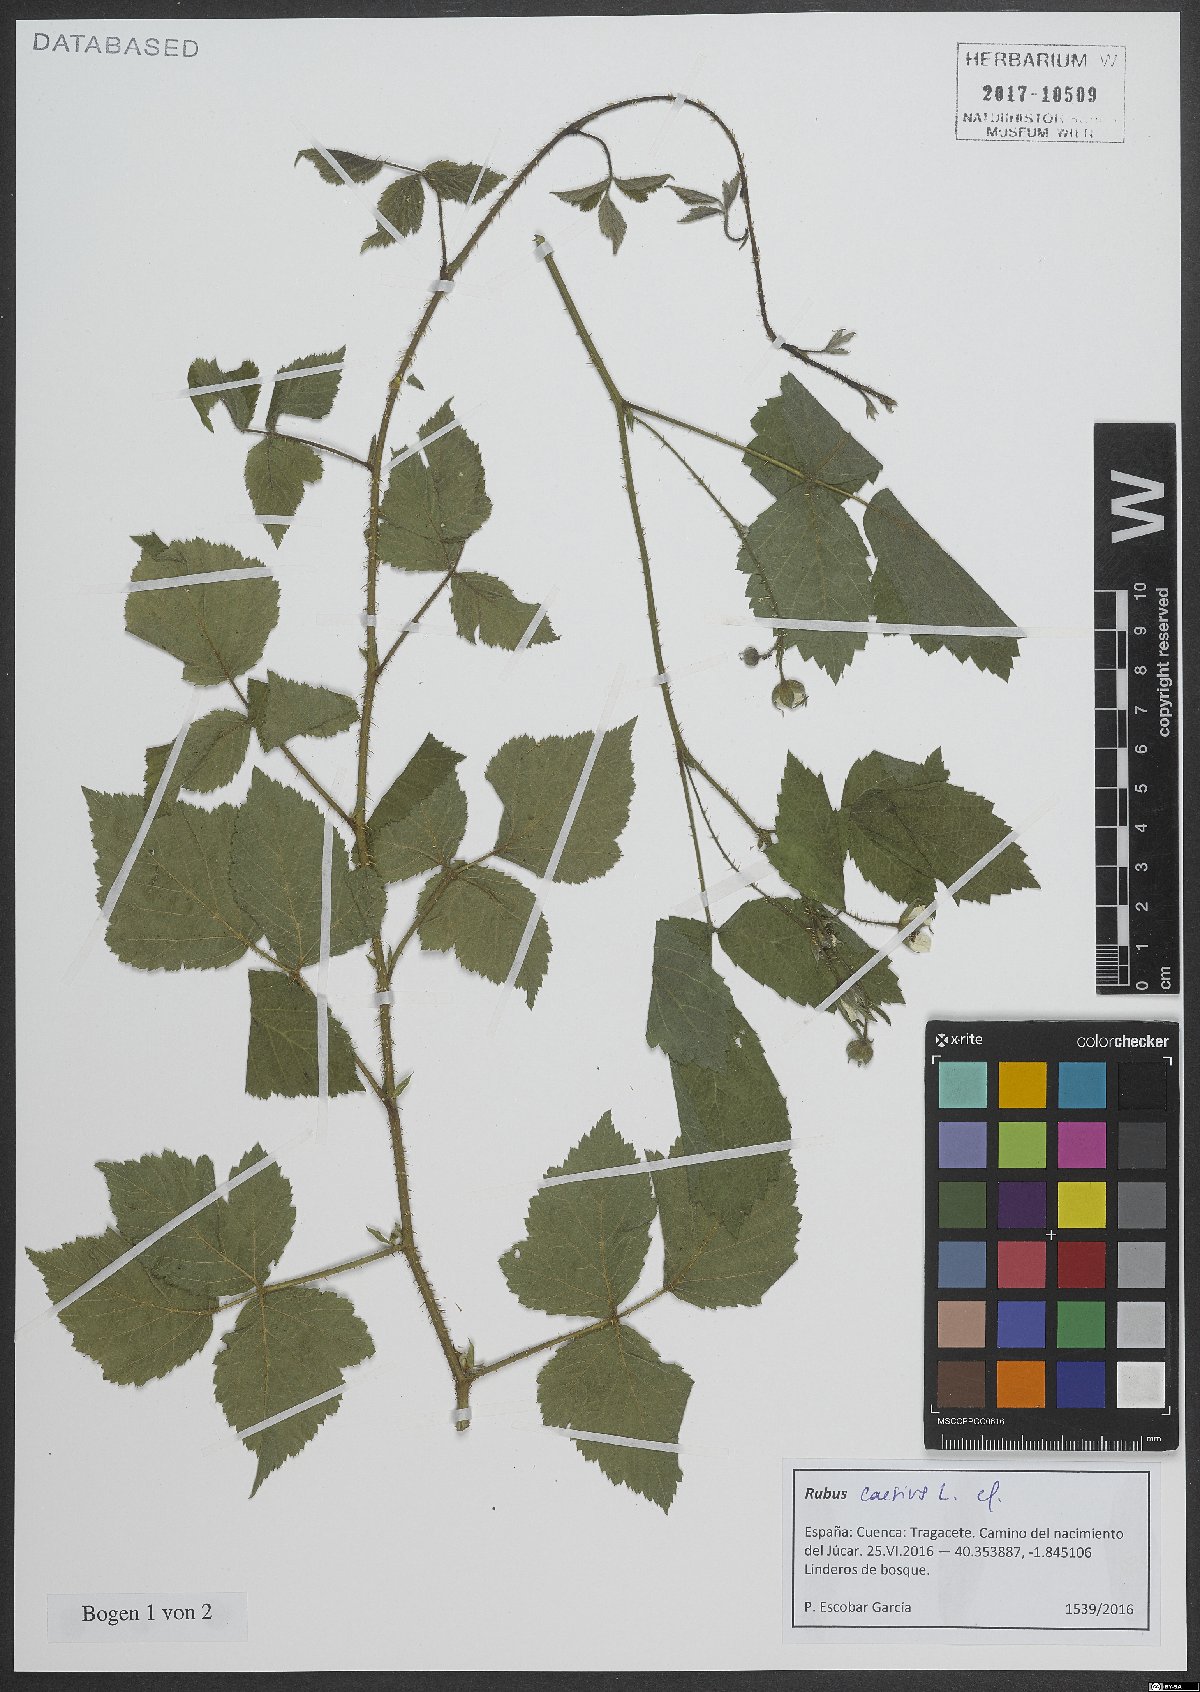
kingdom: Plantae
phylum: Tracheophyta
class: Magnoliopsida
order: Rosales
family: Rosaceae
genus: Rubus
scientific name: Rubus caesius
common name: Dewberry
